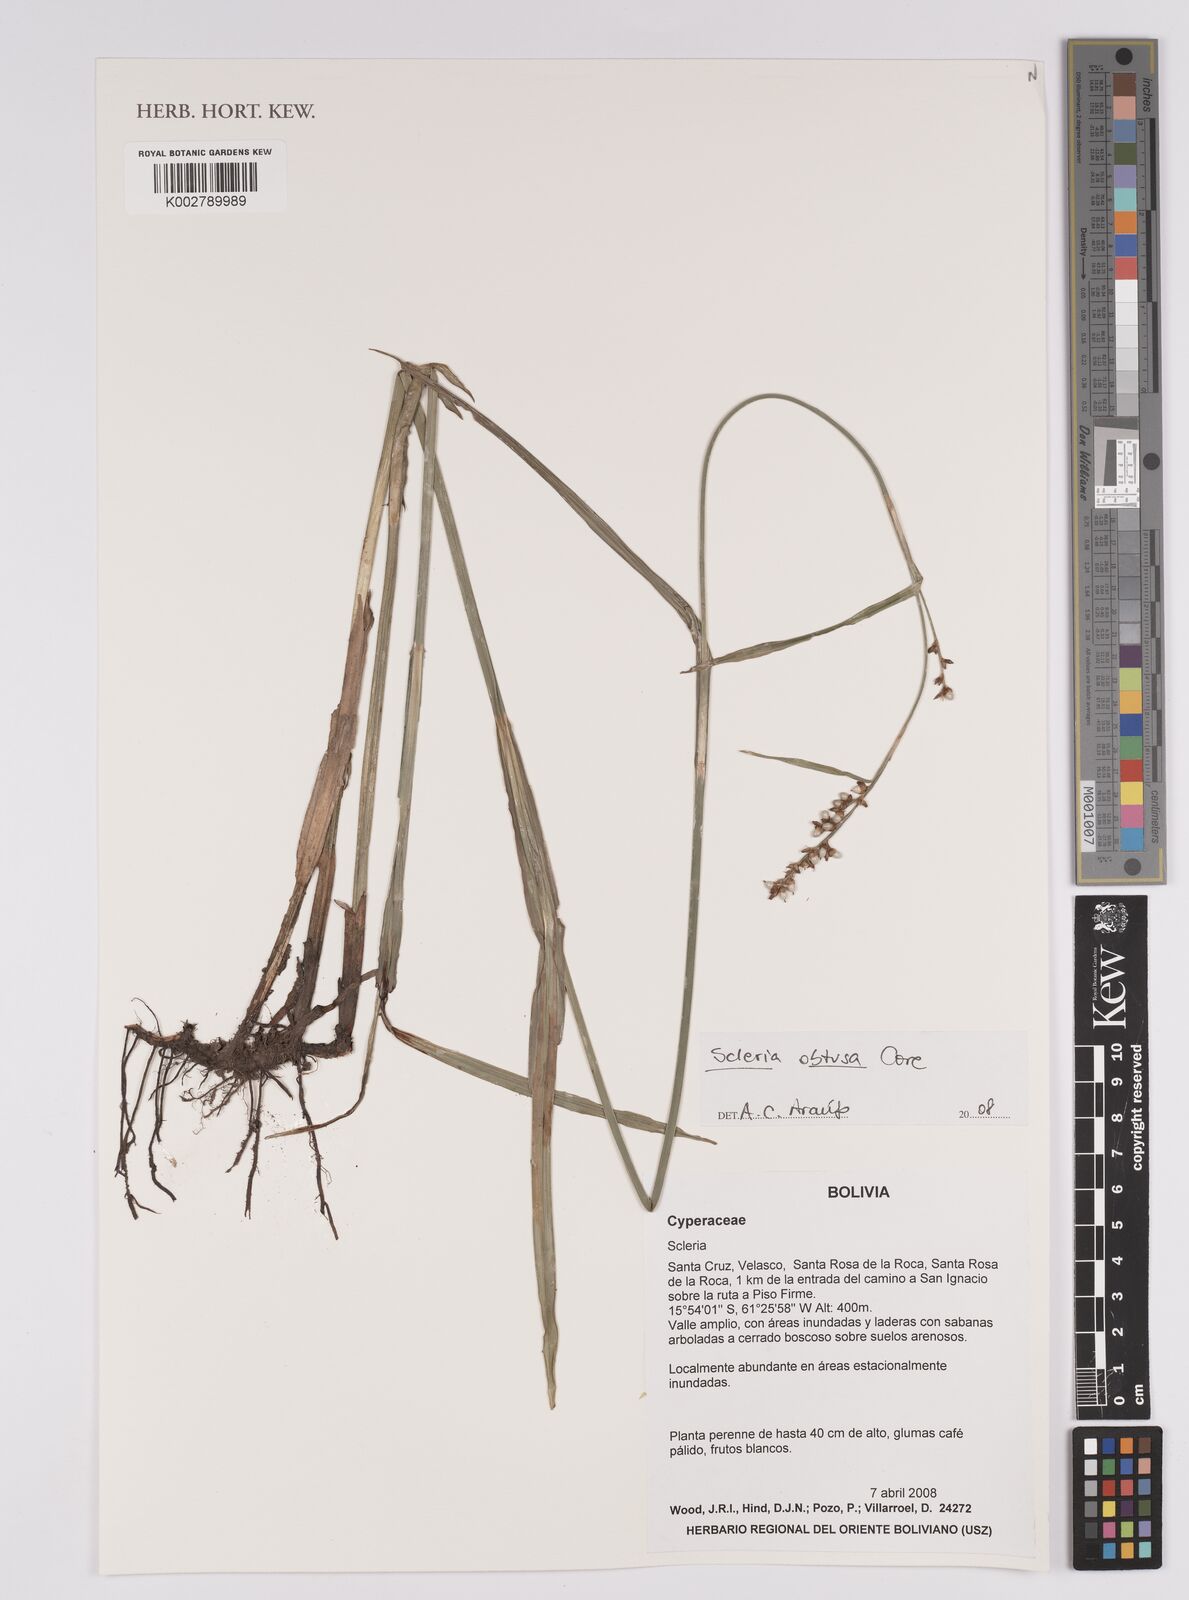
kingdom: Plantae
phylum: Tracheophyta
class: Liliopsida
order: Poales
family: Cyperaceae
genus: Scleria
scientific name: Scleria obtusa
